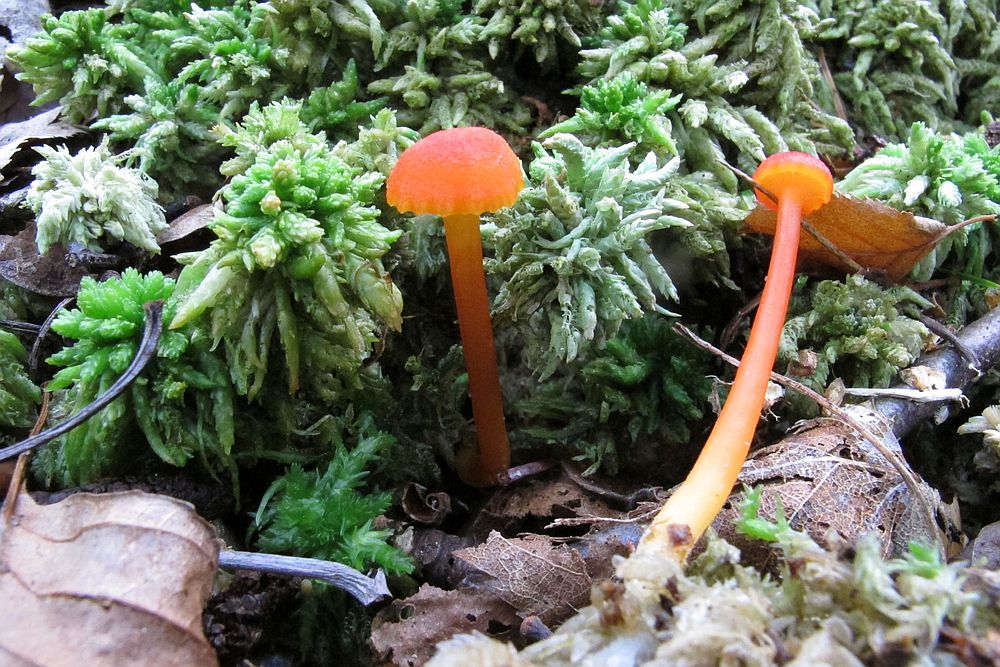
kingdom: Fungi
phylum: Basidiomycota
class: Agaricomycetes
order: Agaricales
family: Hygrophoraceae
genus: Hygrocybe
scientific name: Hygrocybe cantharellus
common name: kantarel-vokshat
